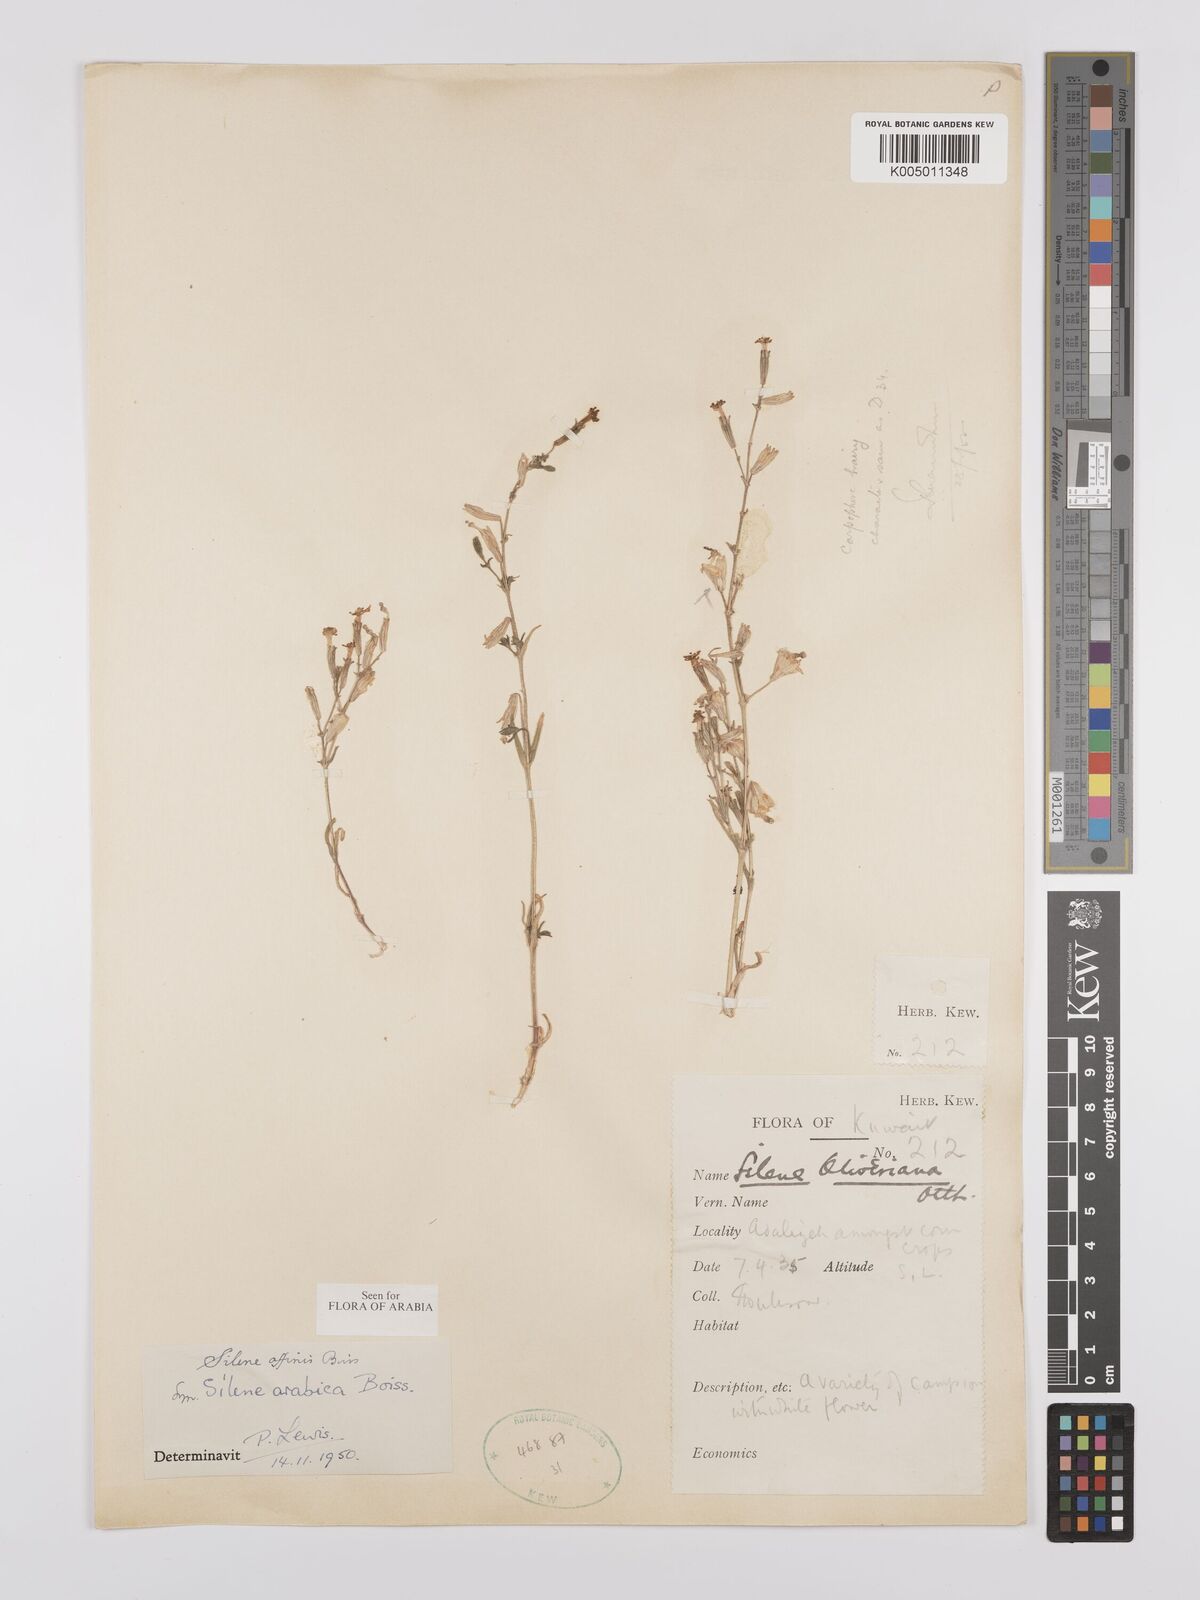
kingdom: Plantae
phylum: Tracheophyta
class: Magnoliopsida
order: Caryophyllales
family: Caryophyllaceae
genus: Silene
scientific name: Silene arabica
